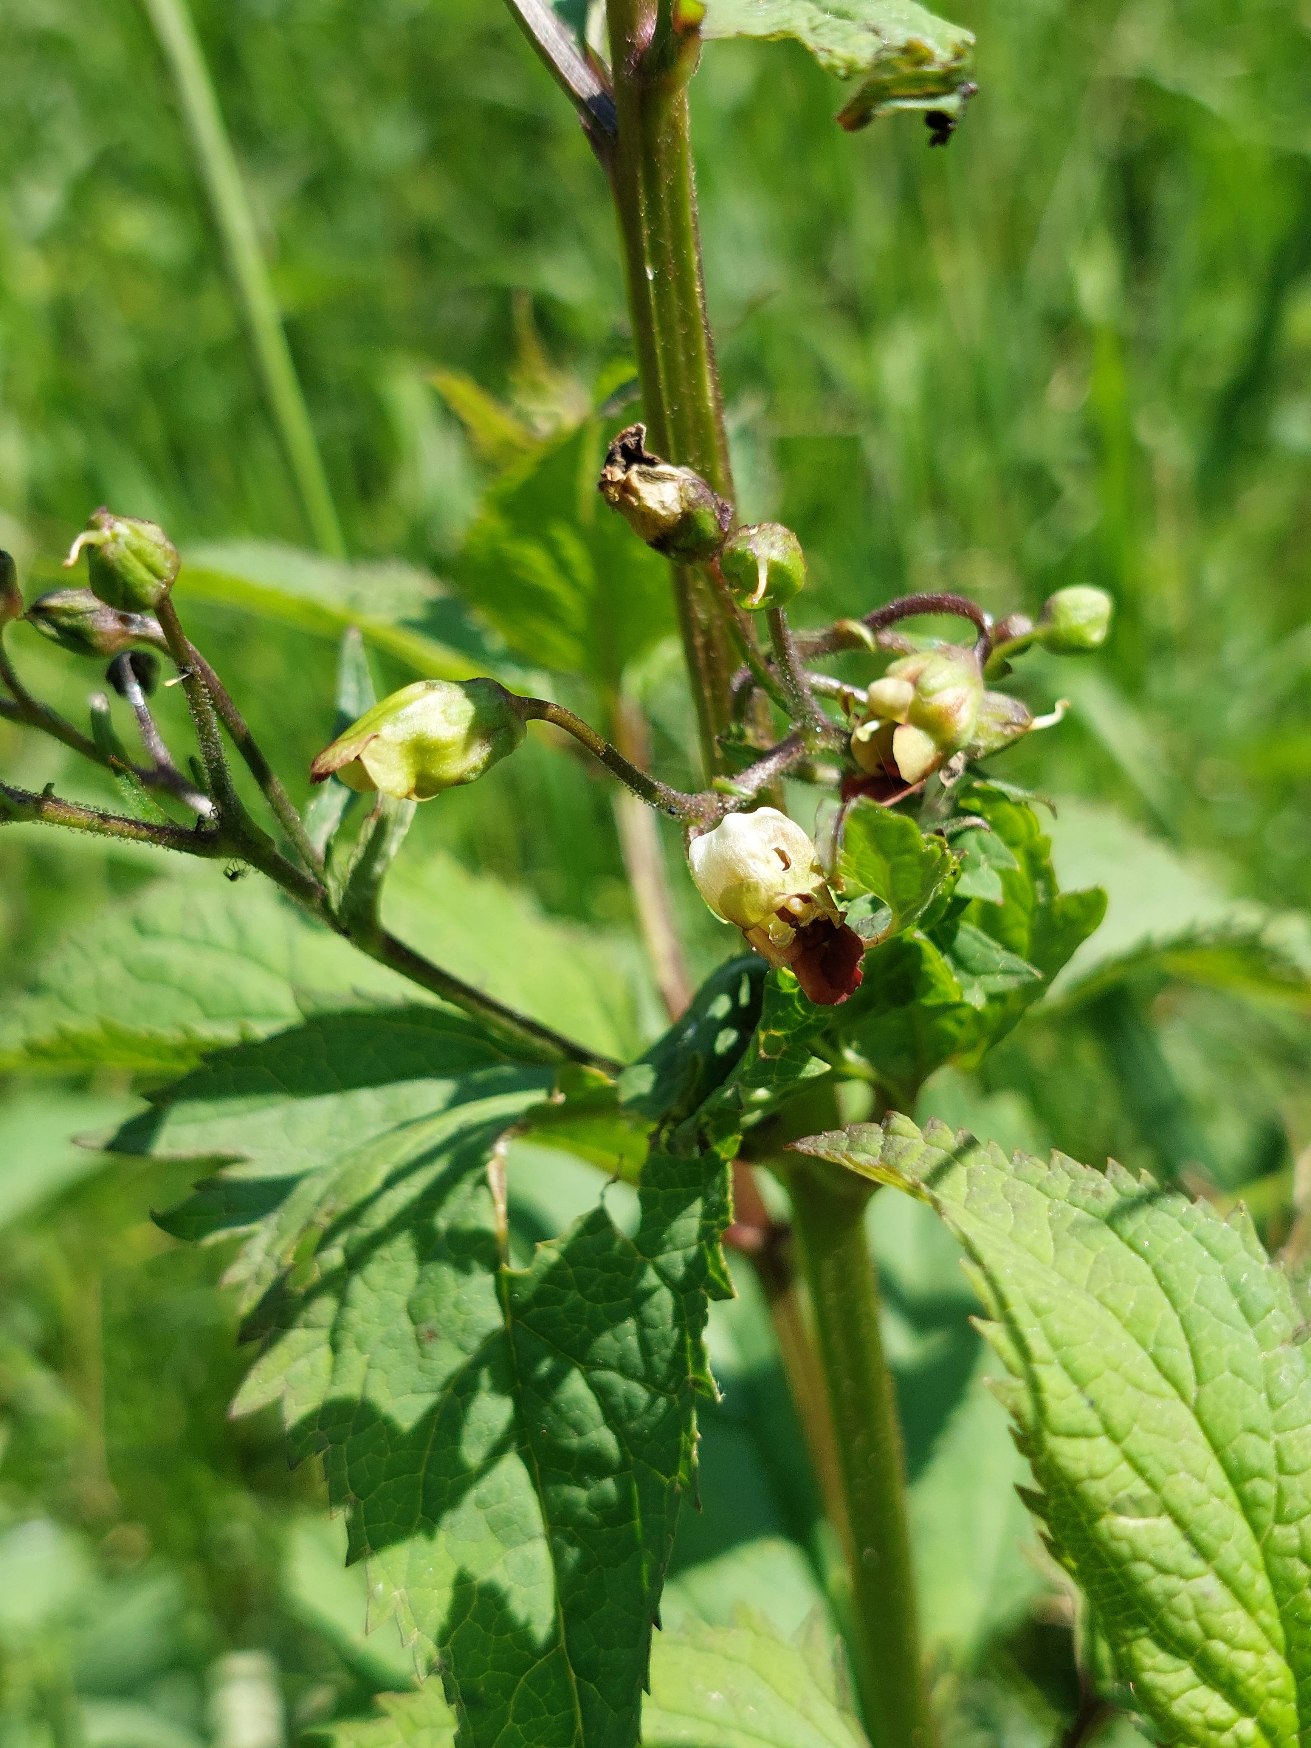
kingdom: Plantae
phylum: Tracheophyta
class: Magnoliopsida
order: Lamiales
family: Scrophulariaceae
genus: Scrophularia
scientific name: Scrophularia nodosa
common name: Knoldet brunrod
